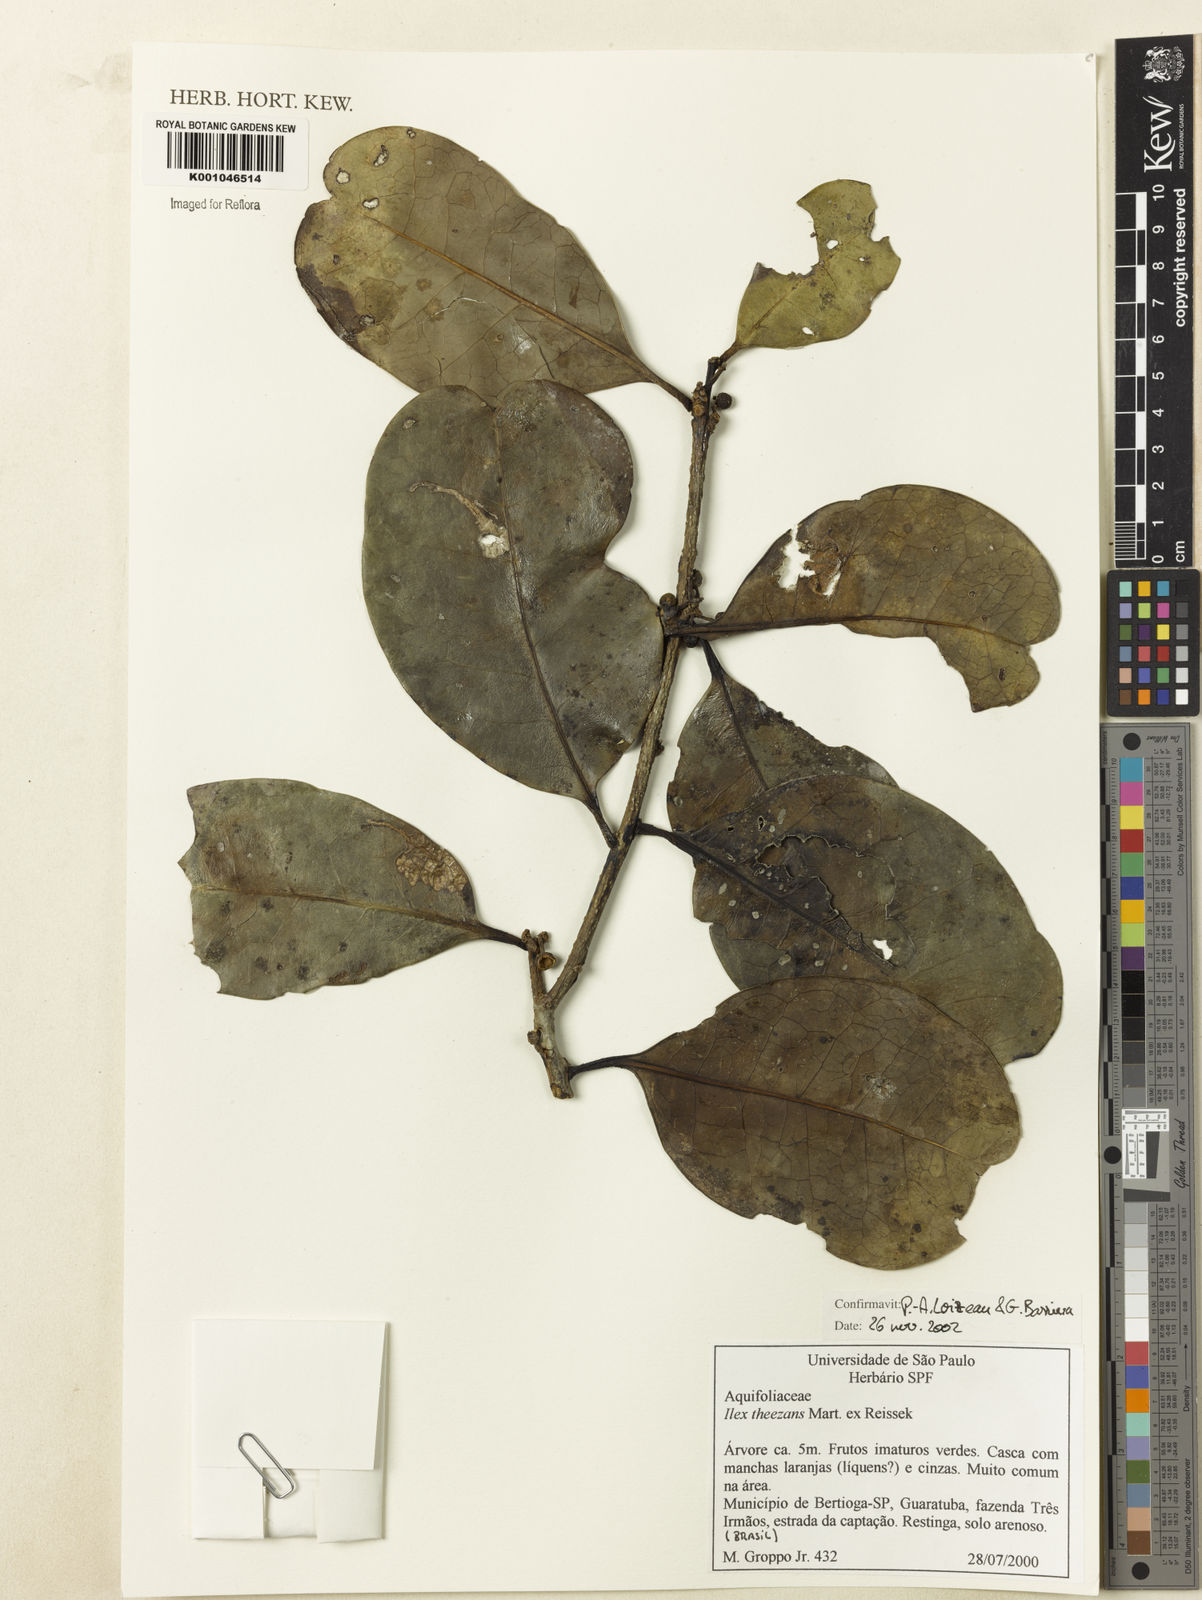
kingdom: Plantae
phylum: Tracheophyta
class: Magnoliopsida
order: Aquifoliales
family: Aquifoliaceae
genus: Ilex
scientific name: Ilex theezans
